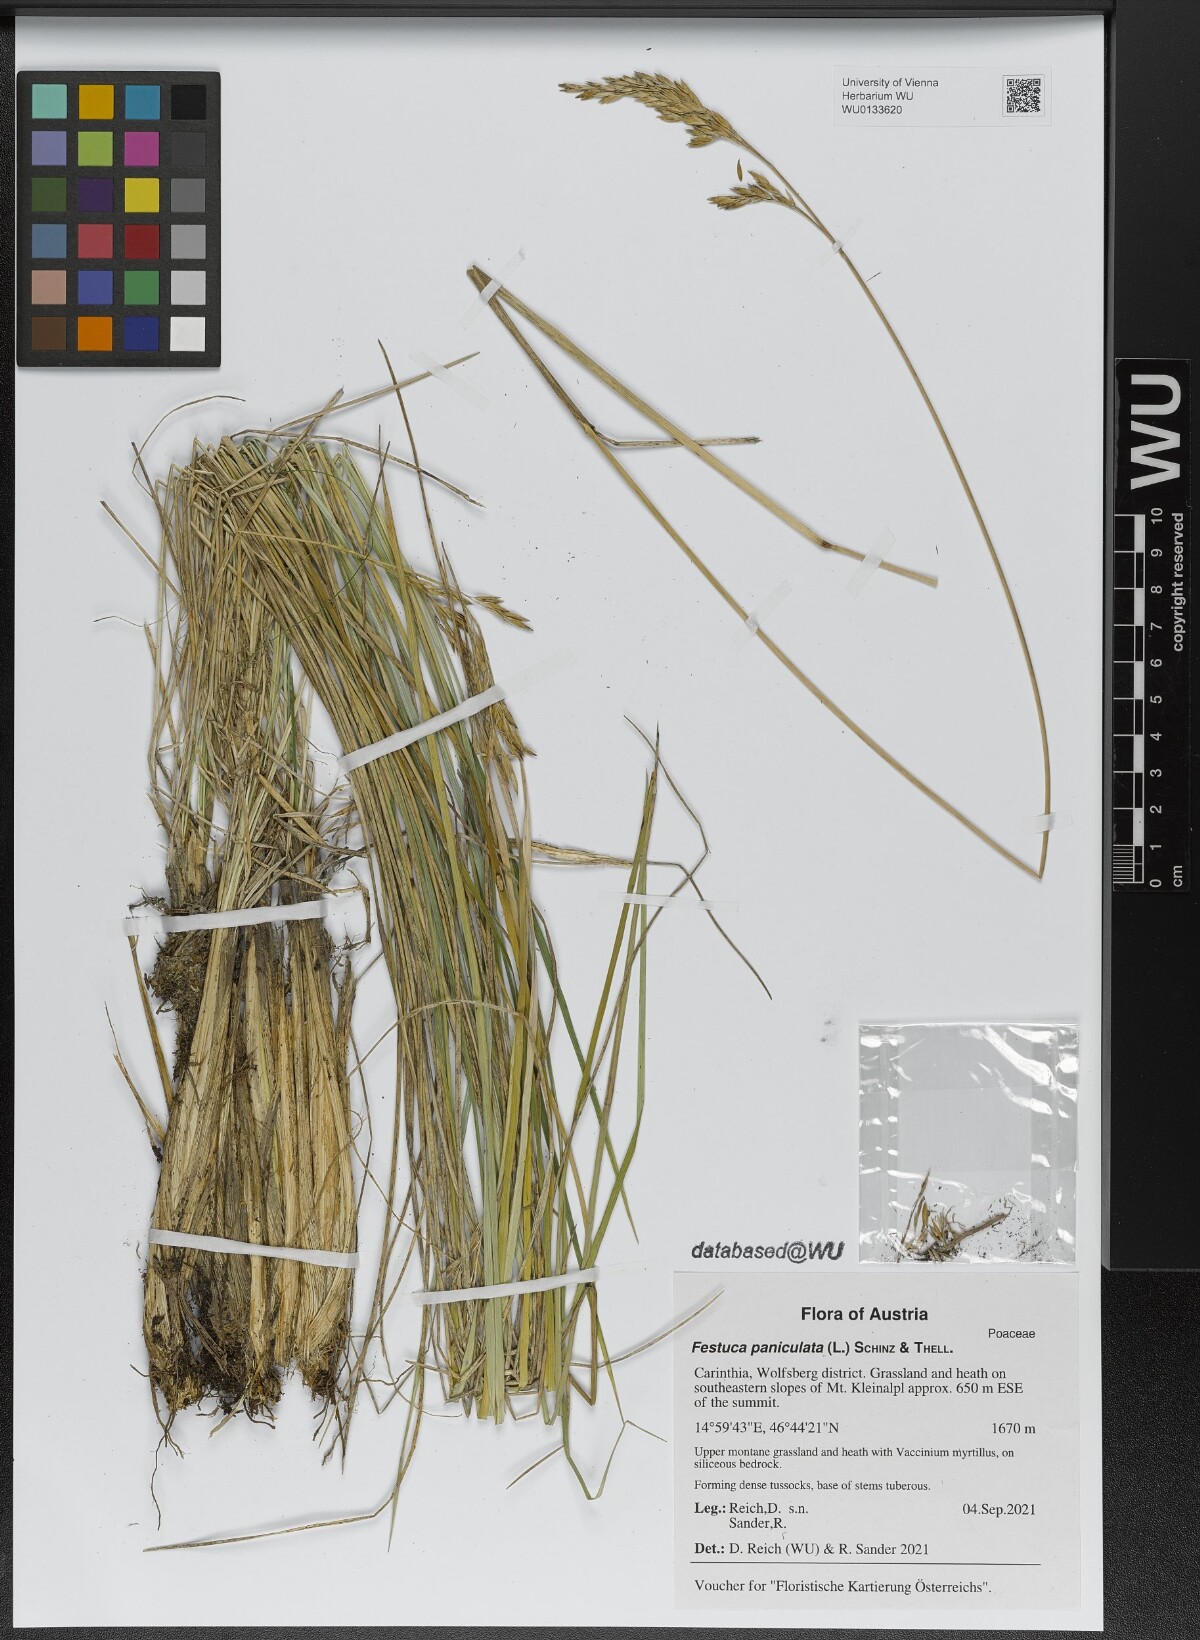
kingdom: Plantae
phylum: Tracheophyta
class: Liliopsida
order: Poales
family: Poaceae
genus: Patzkea
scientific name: Patzkea paniculata
